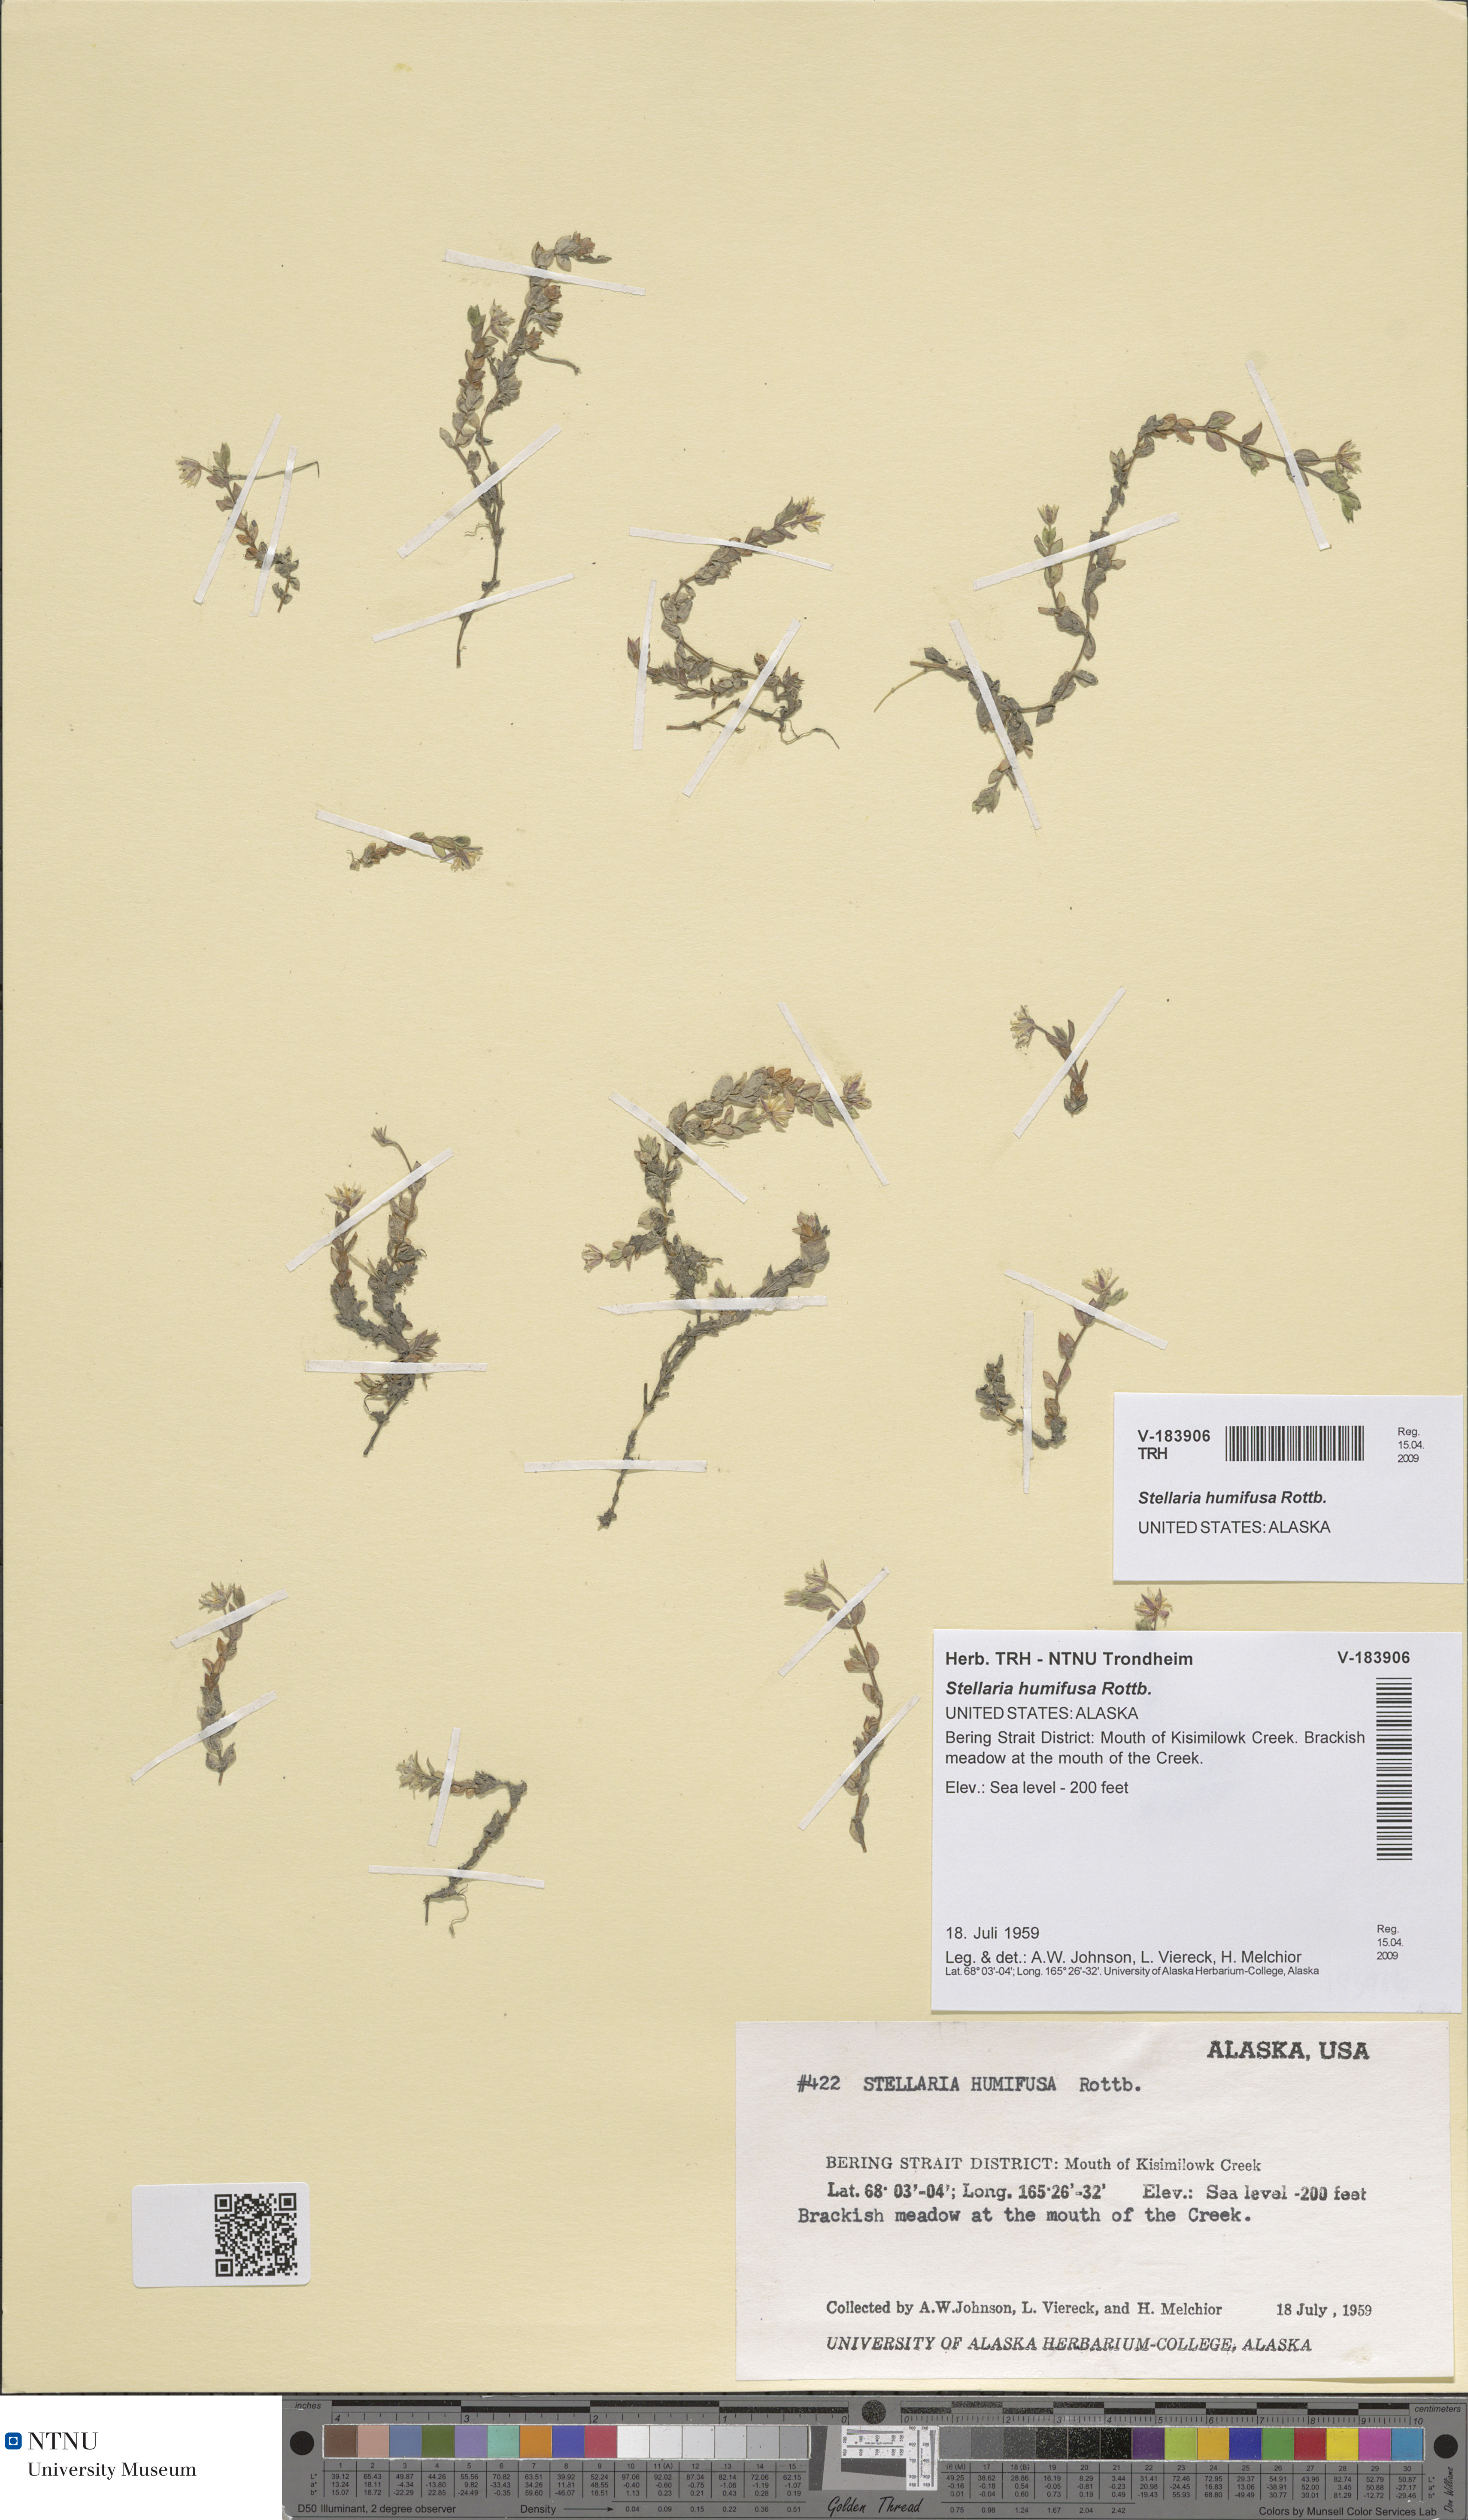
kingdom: Plantae
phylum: Tracheophyta
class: Magnoliopsida
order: Caryophyllales
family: Caryophyllaceae
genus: Stellaria
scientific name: Stellaria humifusa
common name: Creeping starwort
